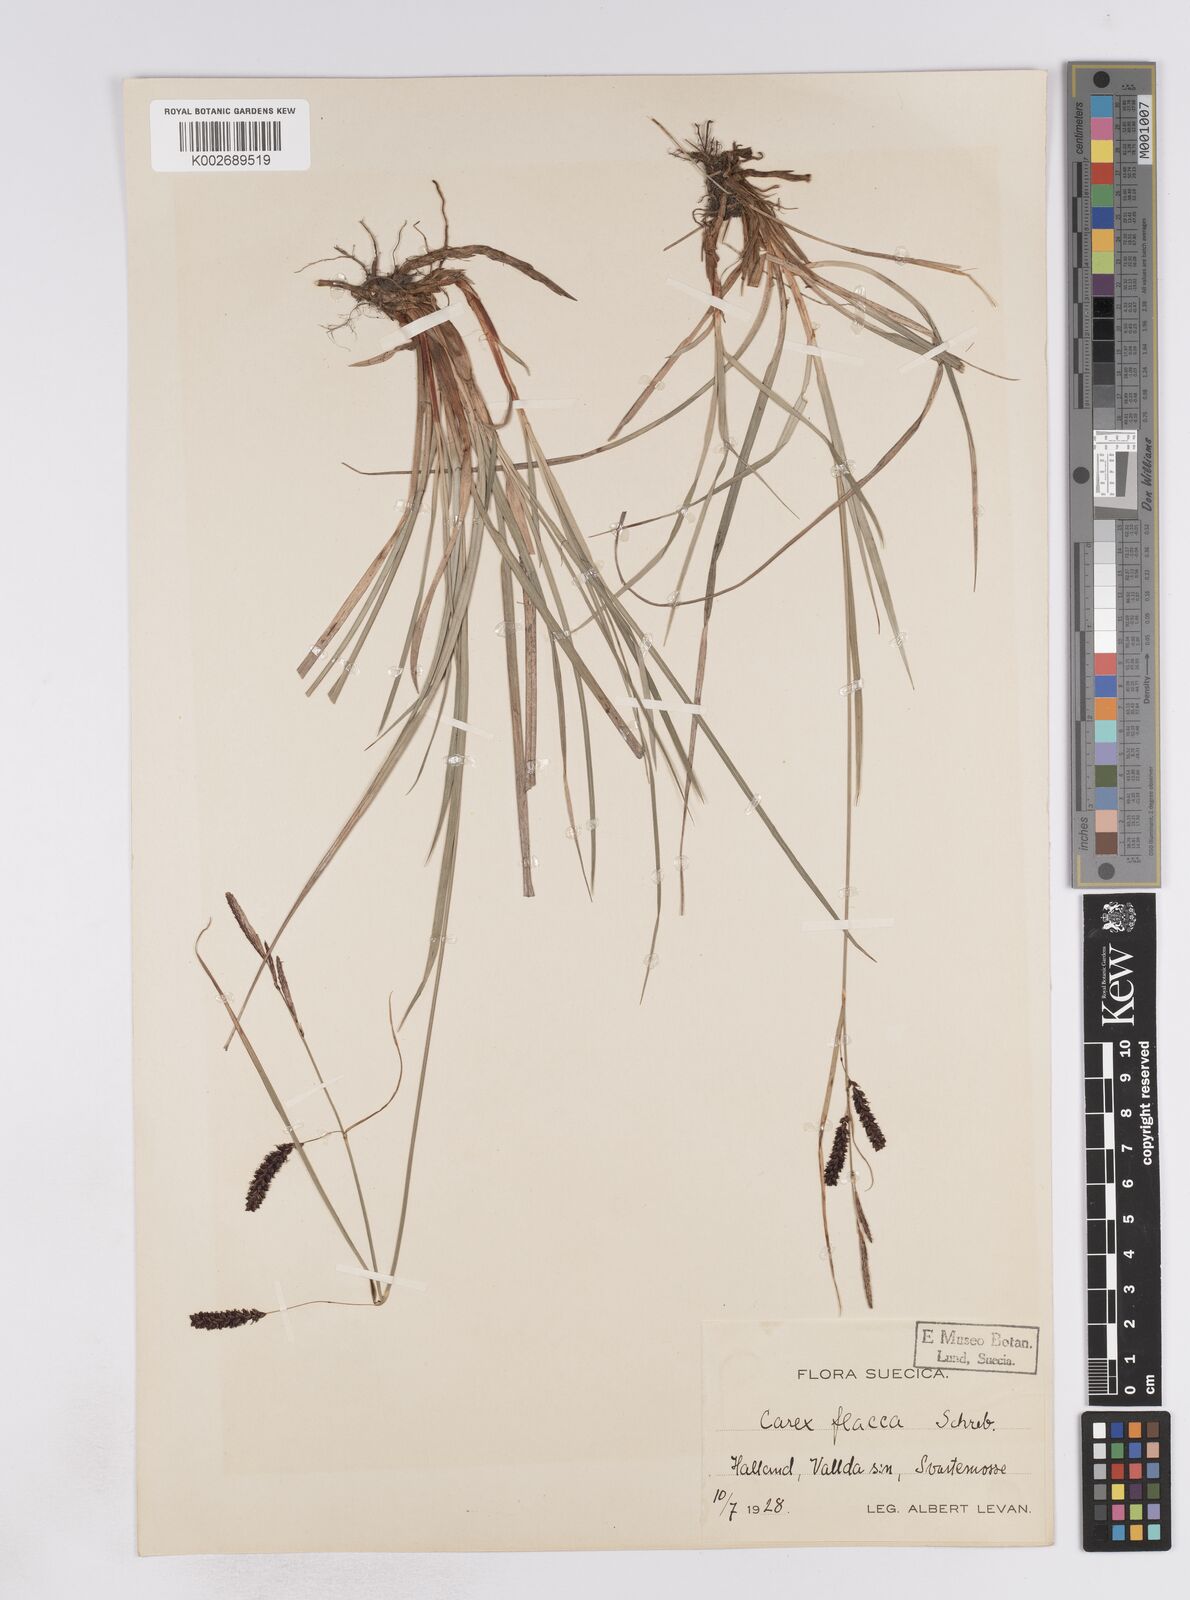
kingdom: Plantae
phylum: Tracheophyta
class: Liliopsida
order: Poales
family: Cyperaceae
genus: Carex
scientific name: Carex flacca
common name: Glaucous sedge
